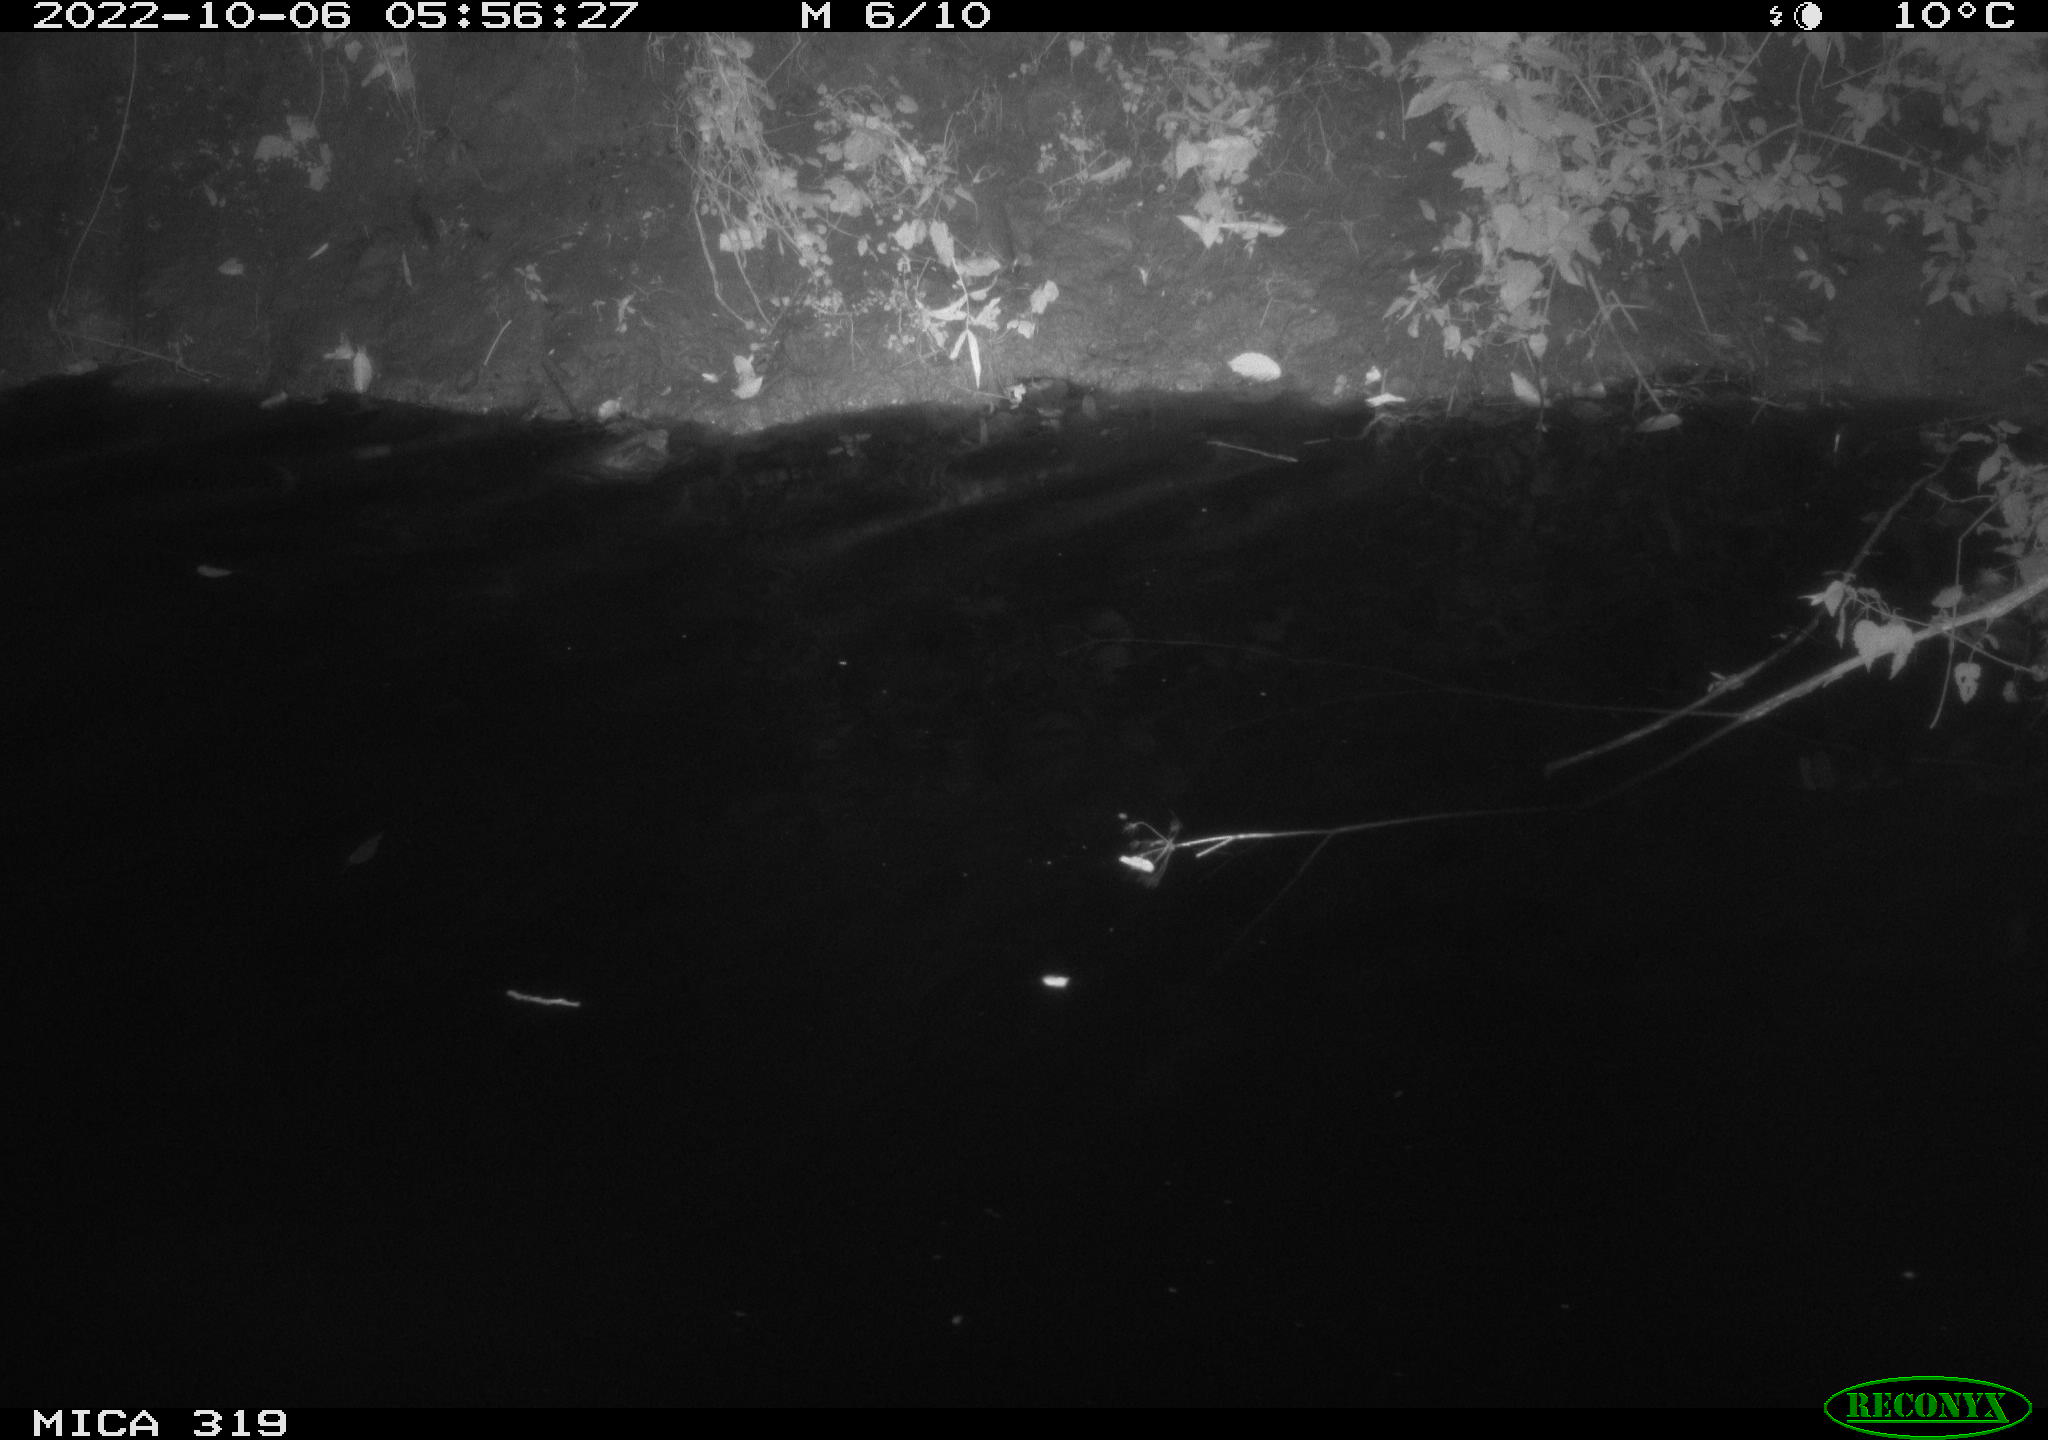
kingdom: Animalia
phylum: Chordata
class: Aves
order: Anseriformes
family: Anatidae
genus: Anas
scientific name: Anas
